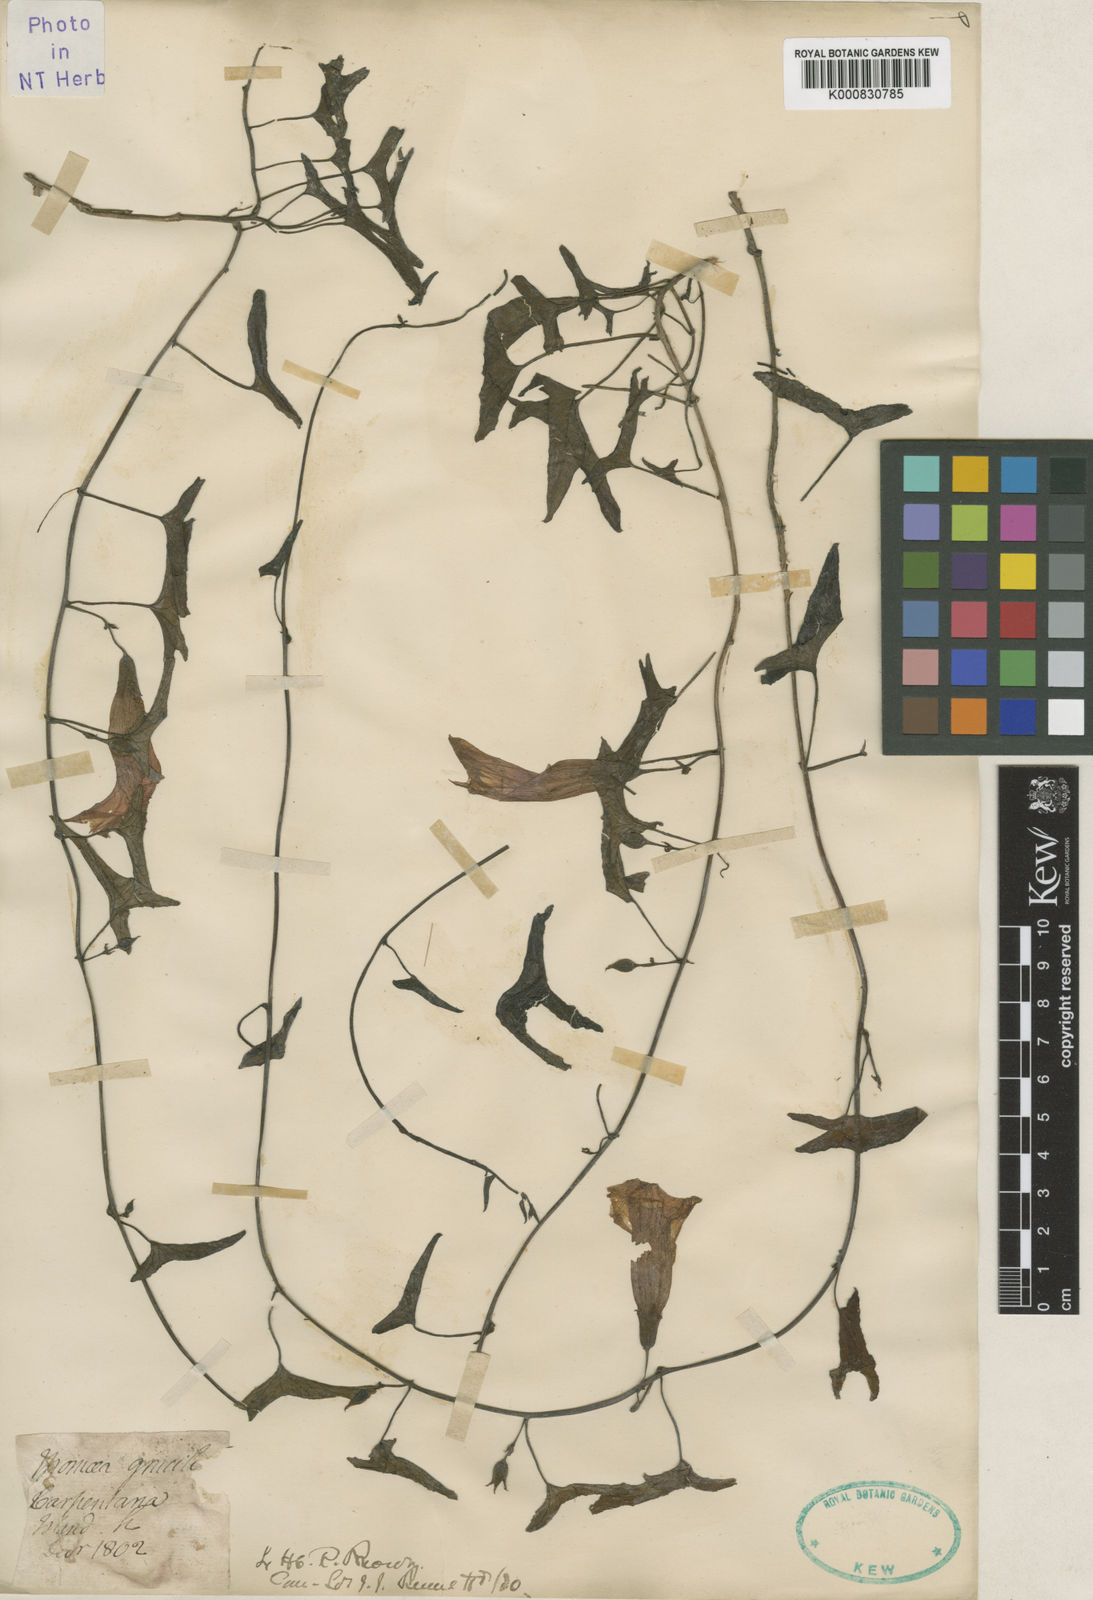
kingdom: Plantae
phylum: Tracheophyta
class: Magnoliopsida
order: Solanales
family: Convolvulaceae
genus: Ipomoea
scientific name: Ipomoea gracilis
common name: Almor-ira
